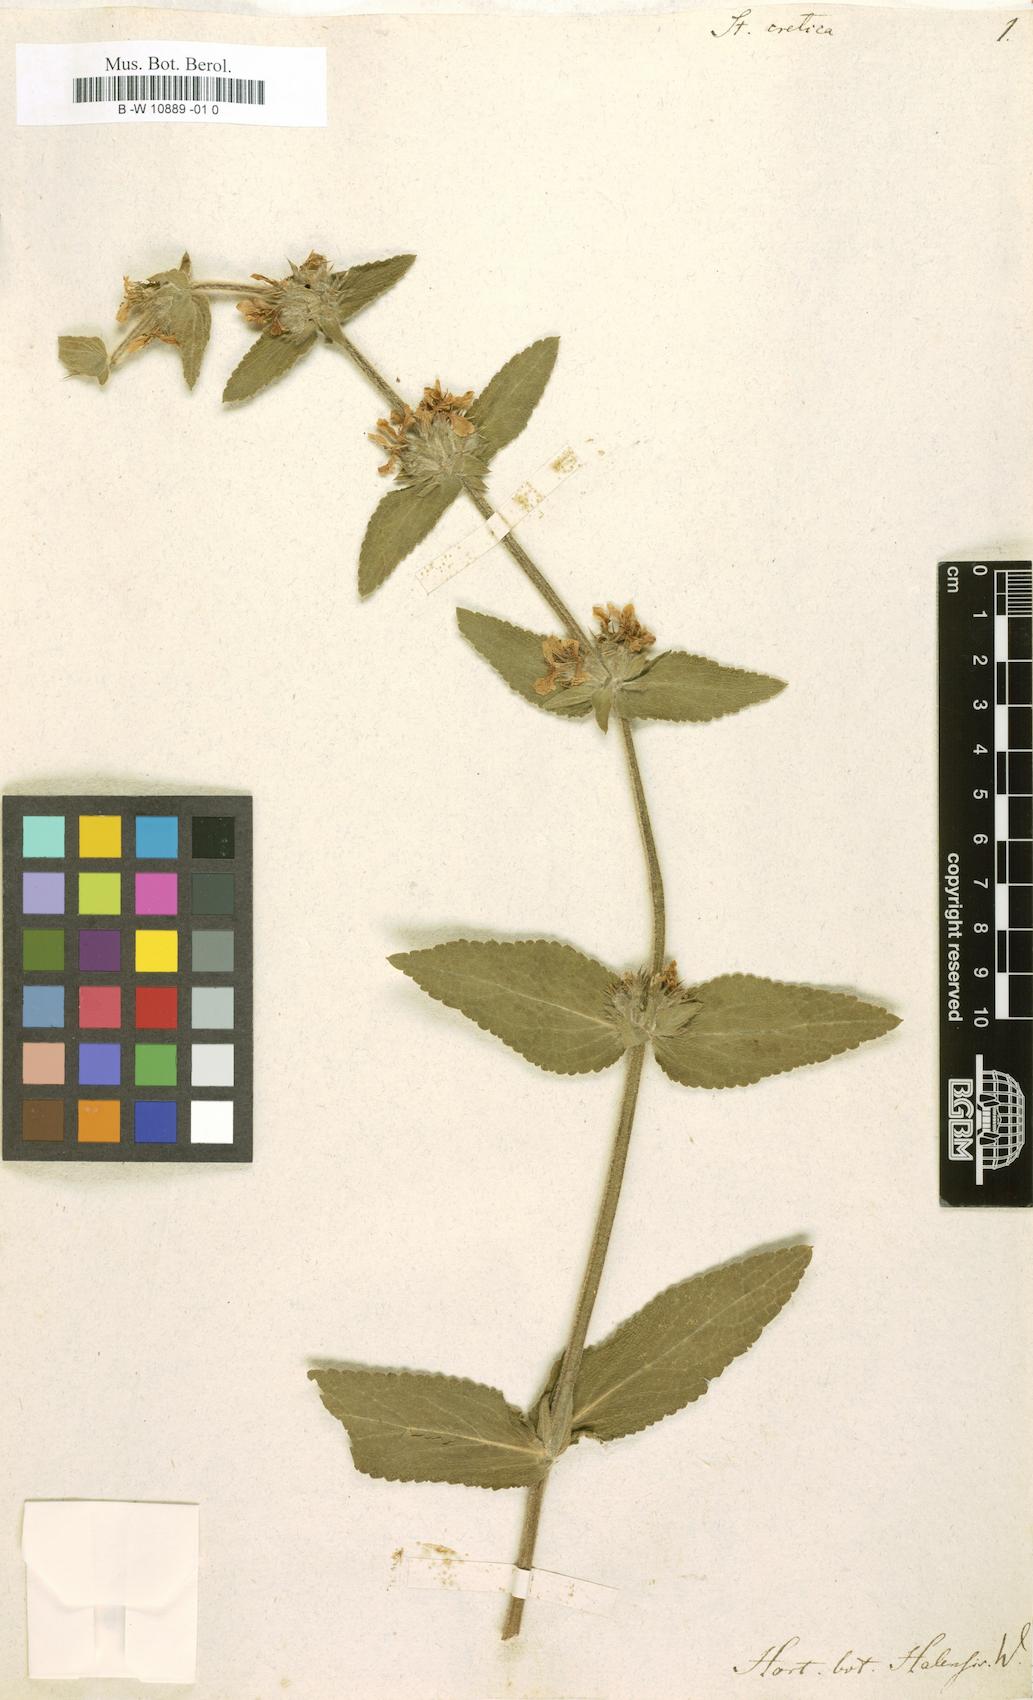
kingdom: Plantae
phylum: Tracheophyta
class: Magnoliopsida
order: Lamiales
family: Lamiaceae
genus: Stachys
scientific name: Stachys cretica
